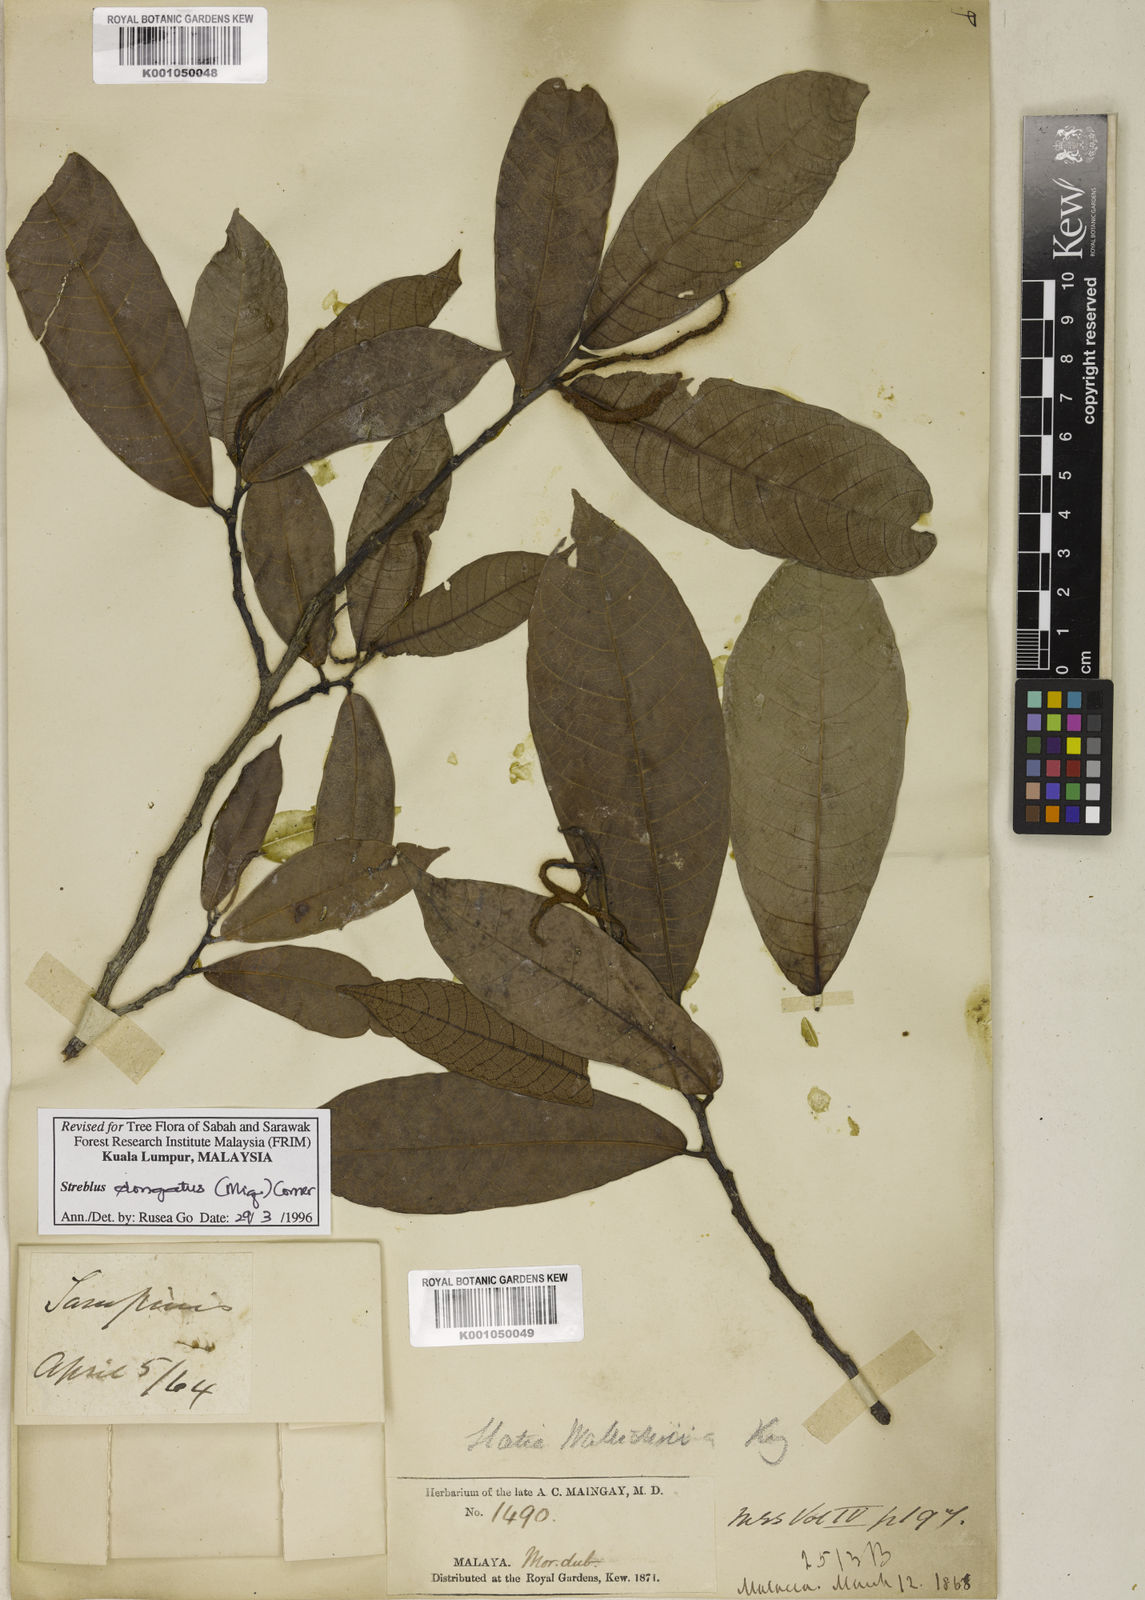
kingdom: Plantae
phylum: Tracheophyta
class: Magnoliopsida
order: Rosales
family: Moraceae
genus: Sloetia
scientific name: Sloetia elongata
